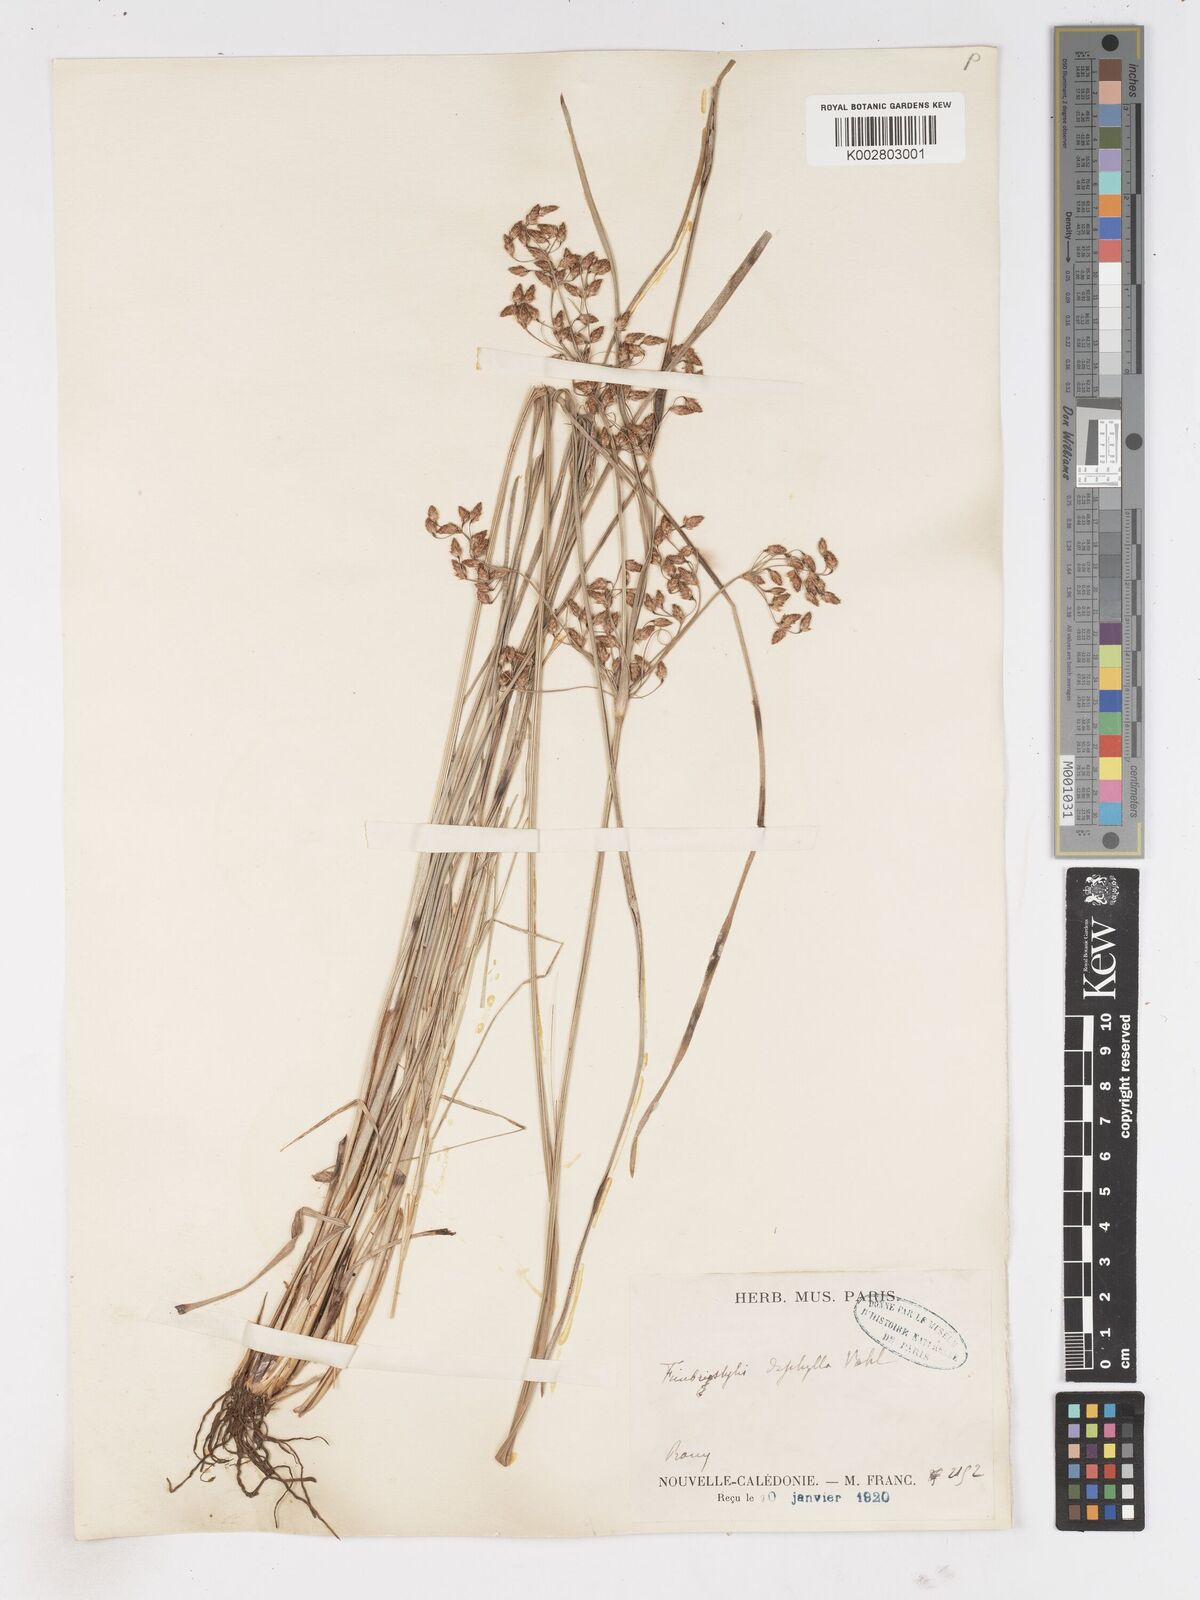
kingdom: Plantae
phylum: Tracheophyta
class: Liliopsida
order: Poales
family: Cyperaceae
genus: Fimbristylis
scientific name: Fimbristylis dichotoma
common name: Forked fimbry
